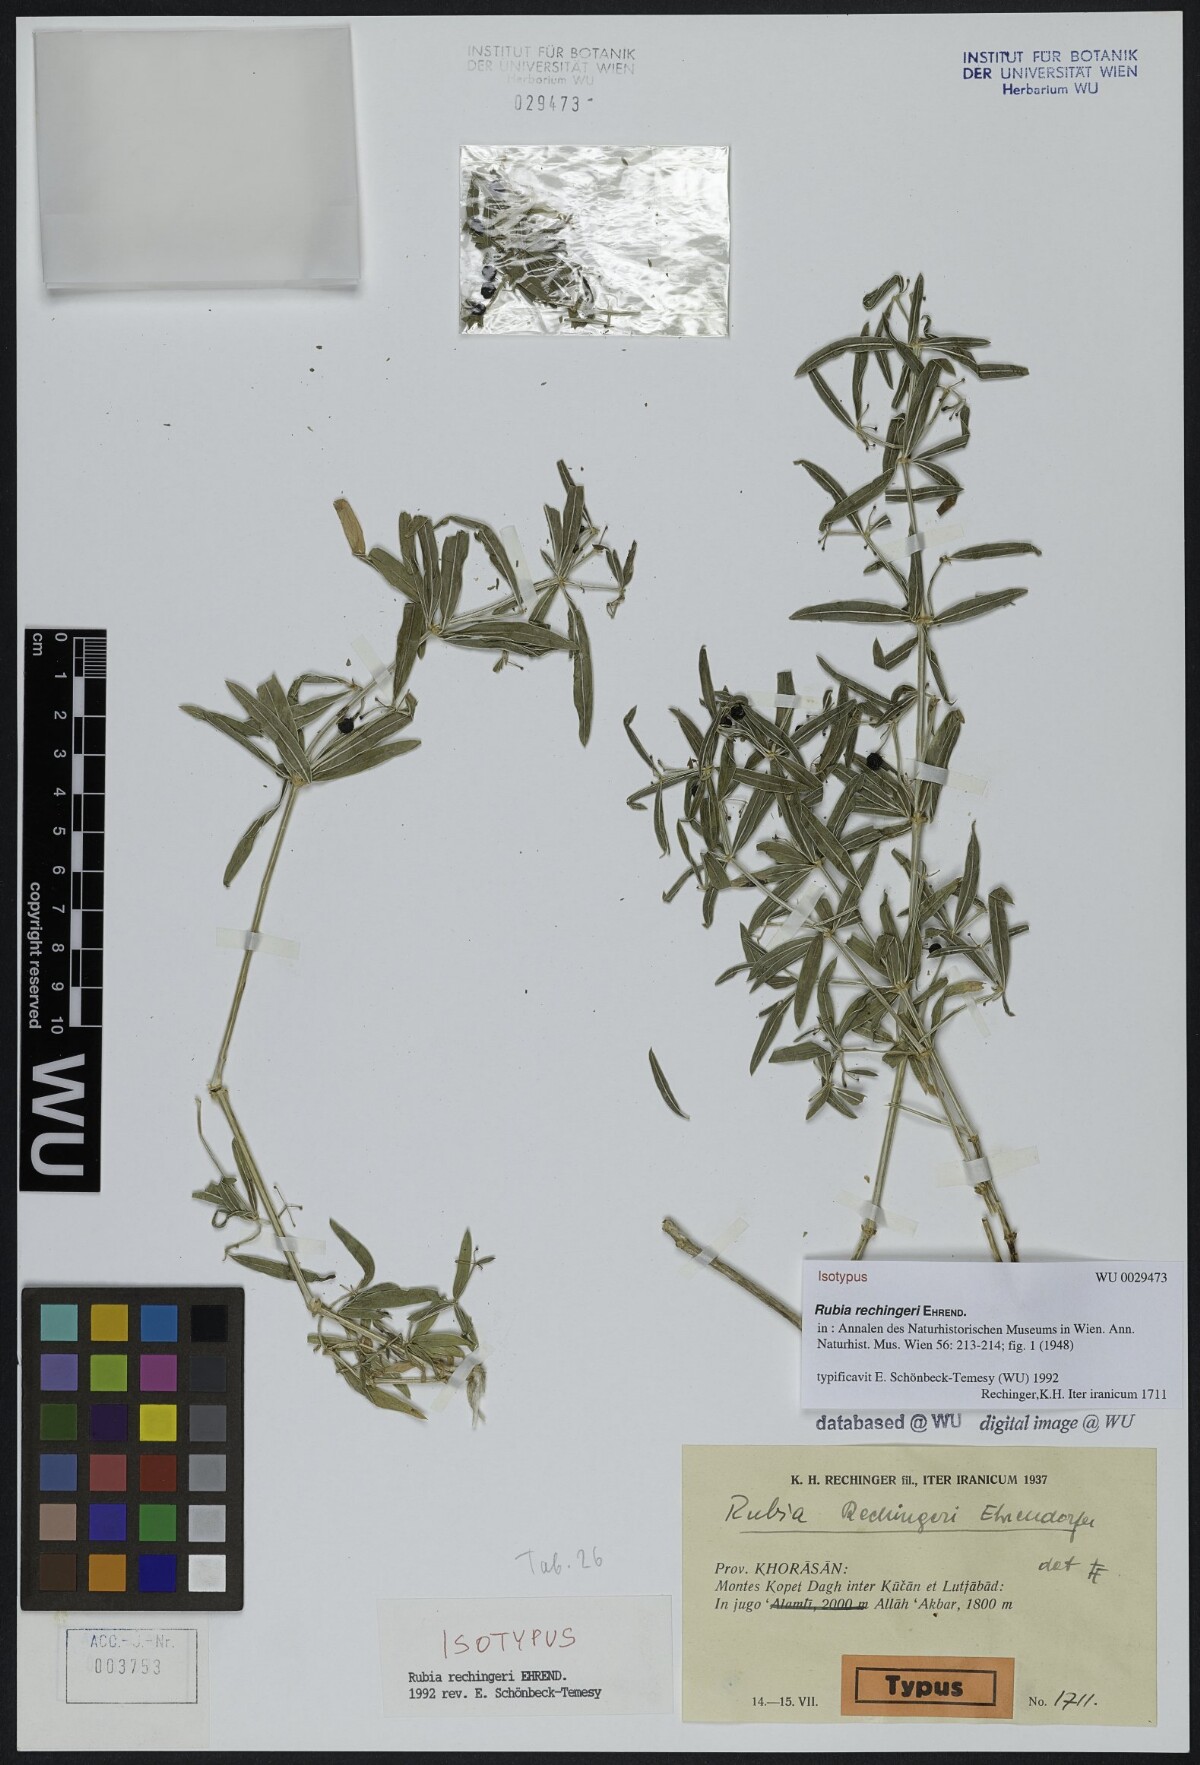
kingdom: Plantae
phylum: Tracheophyta
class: Magnoliopsida
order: Gentianales
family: Rubiaceae
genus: Rubia
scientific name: Rubia rechingeri
